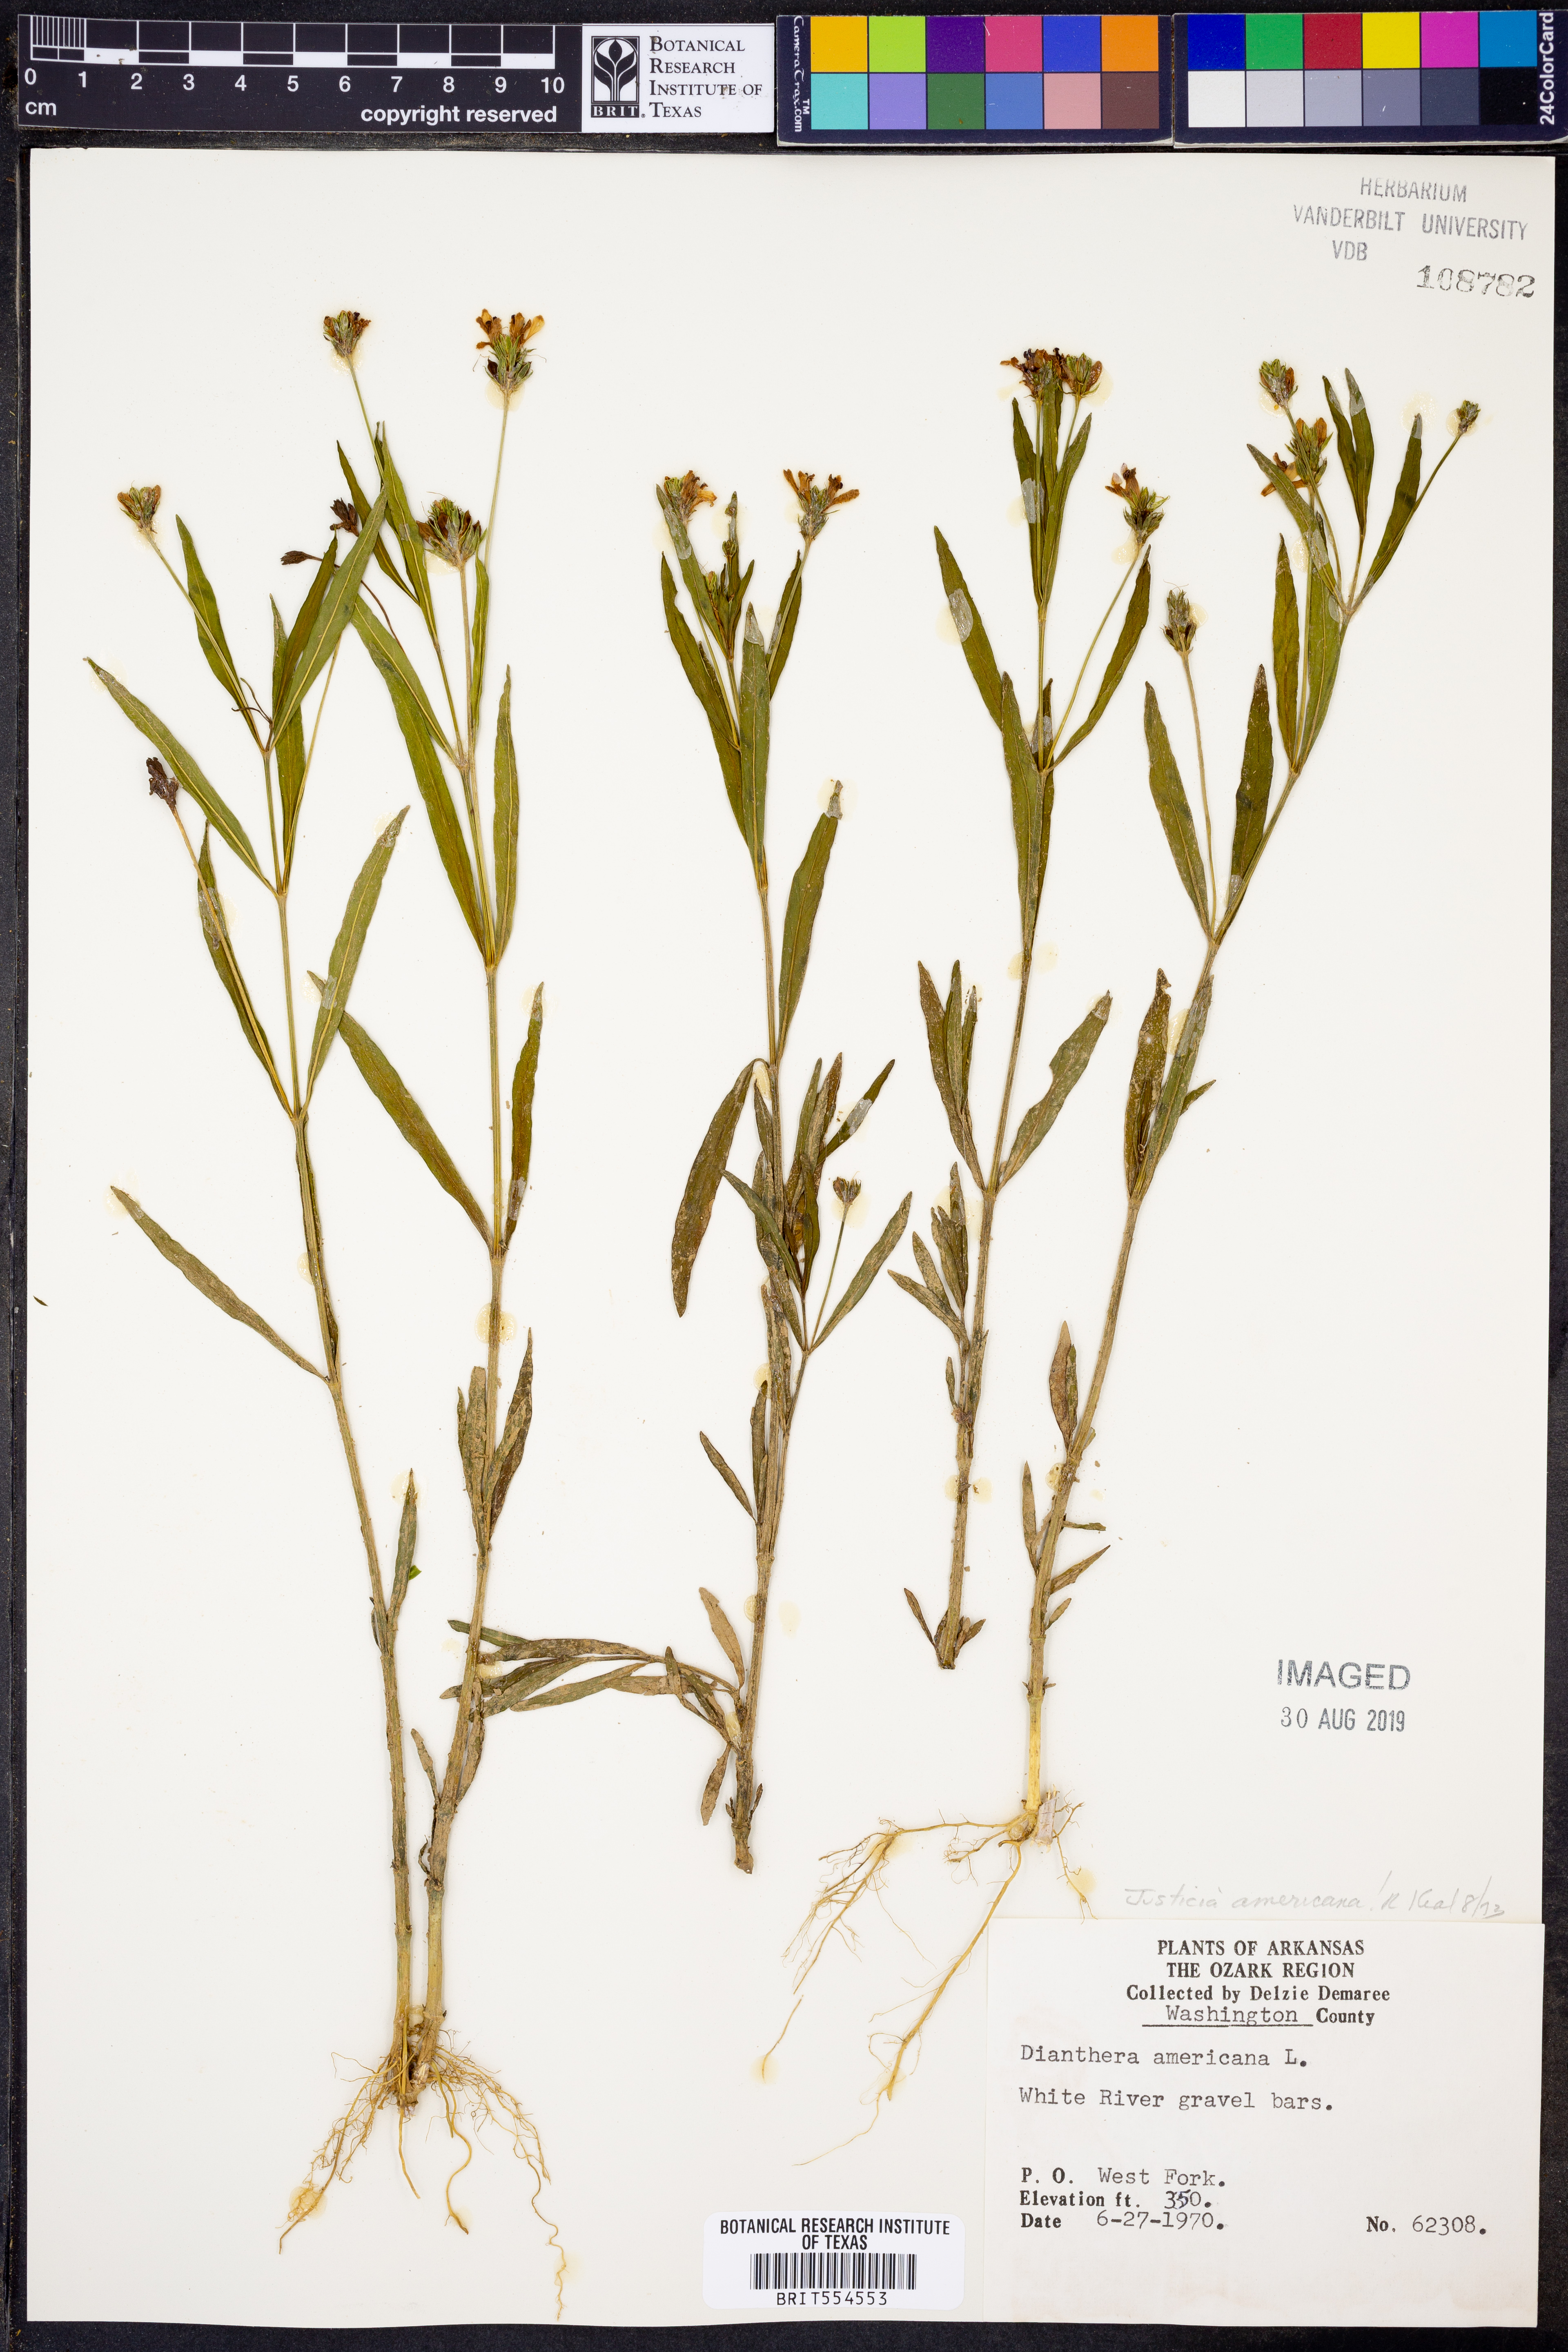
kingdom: Plantae
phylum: Tracheophyta
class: Magnoliopsida
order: Lamiales
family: Acanthaceae
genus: Dianthera
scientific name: Dianthera americana
